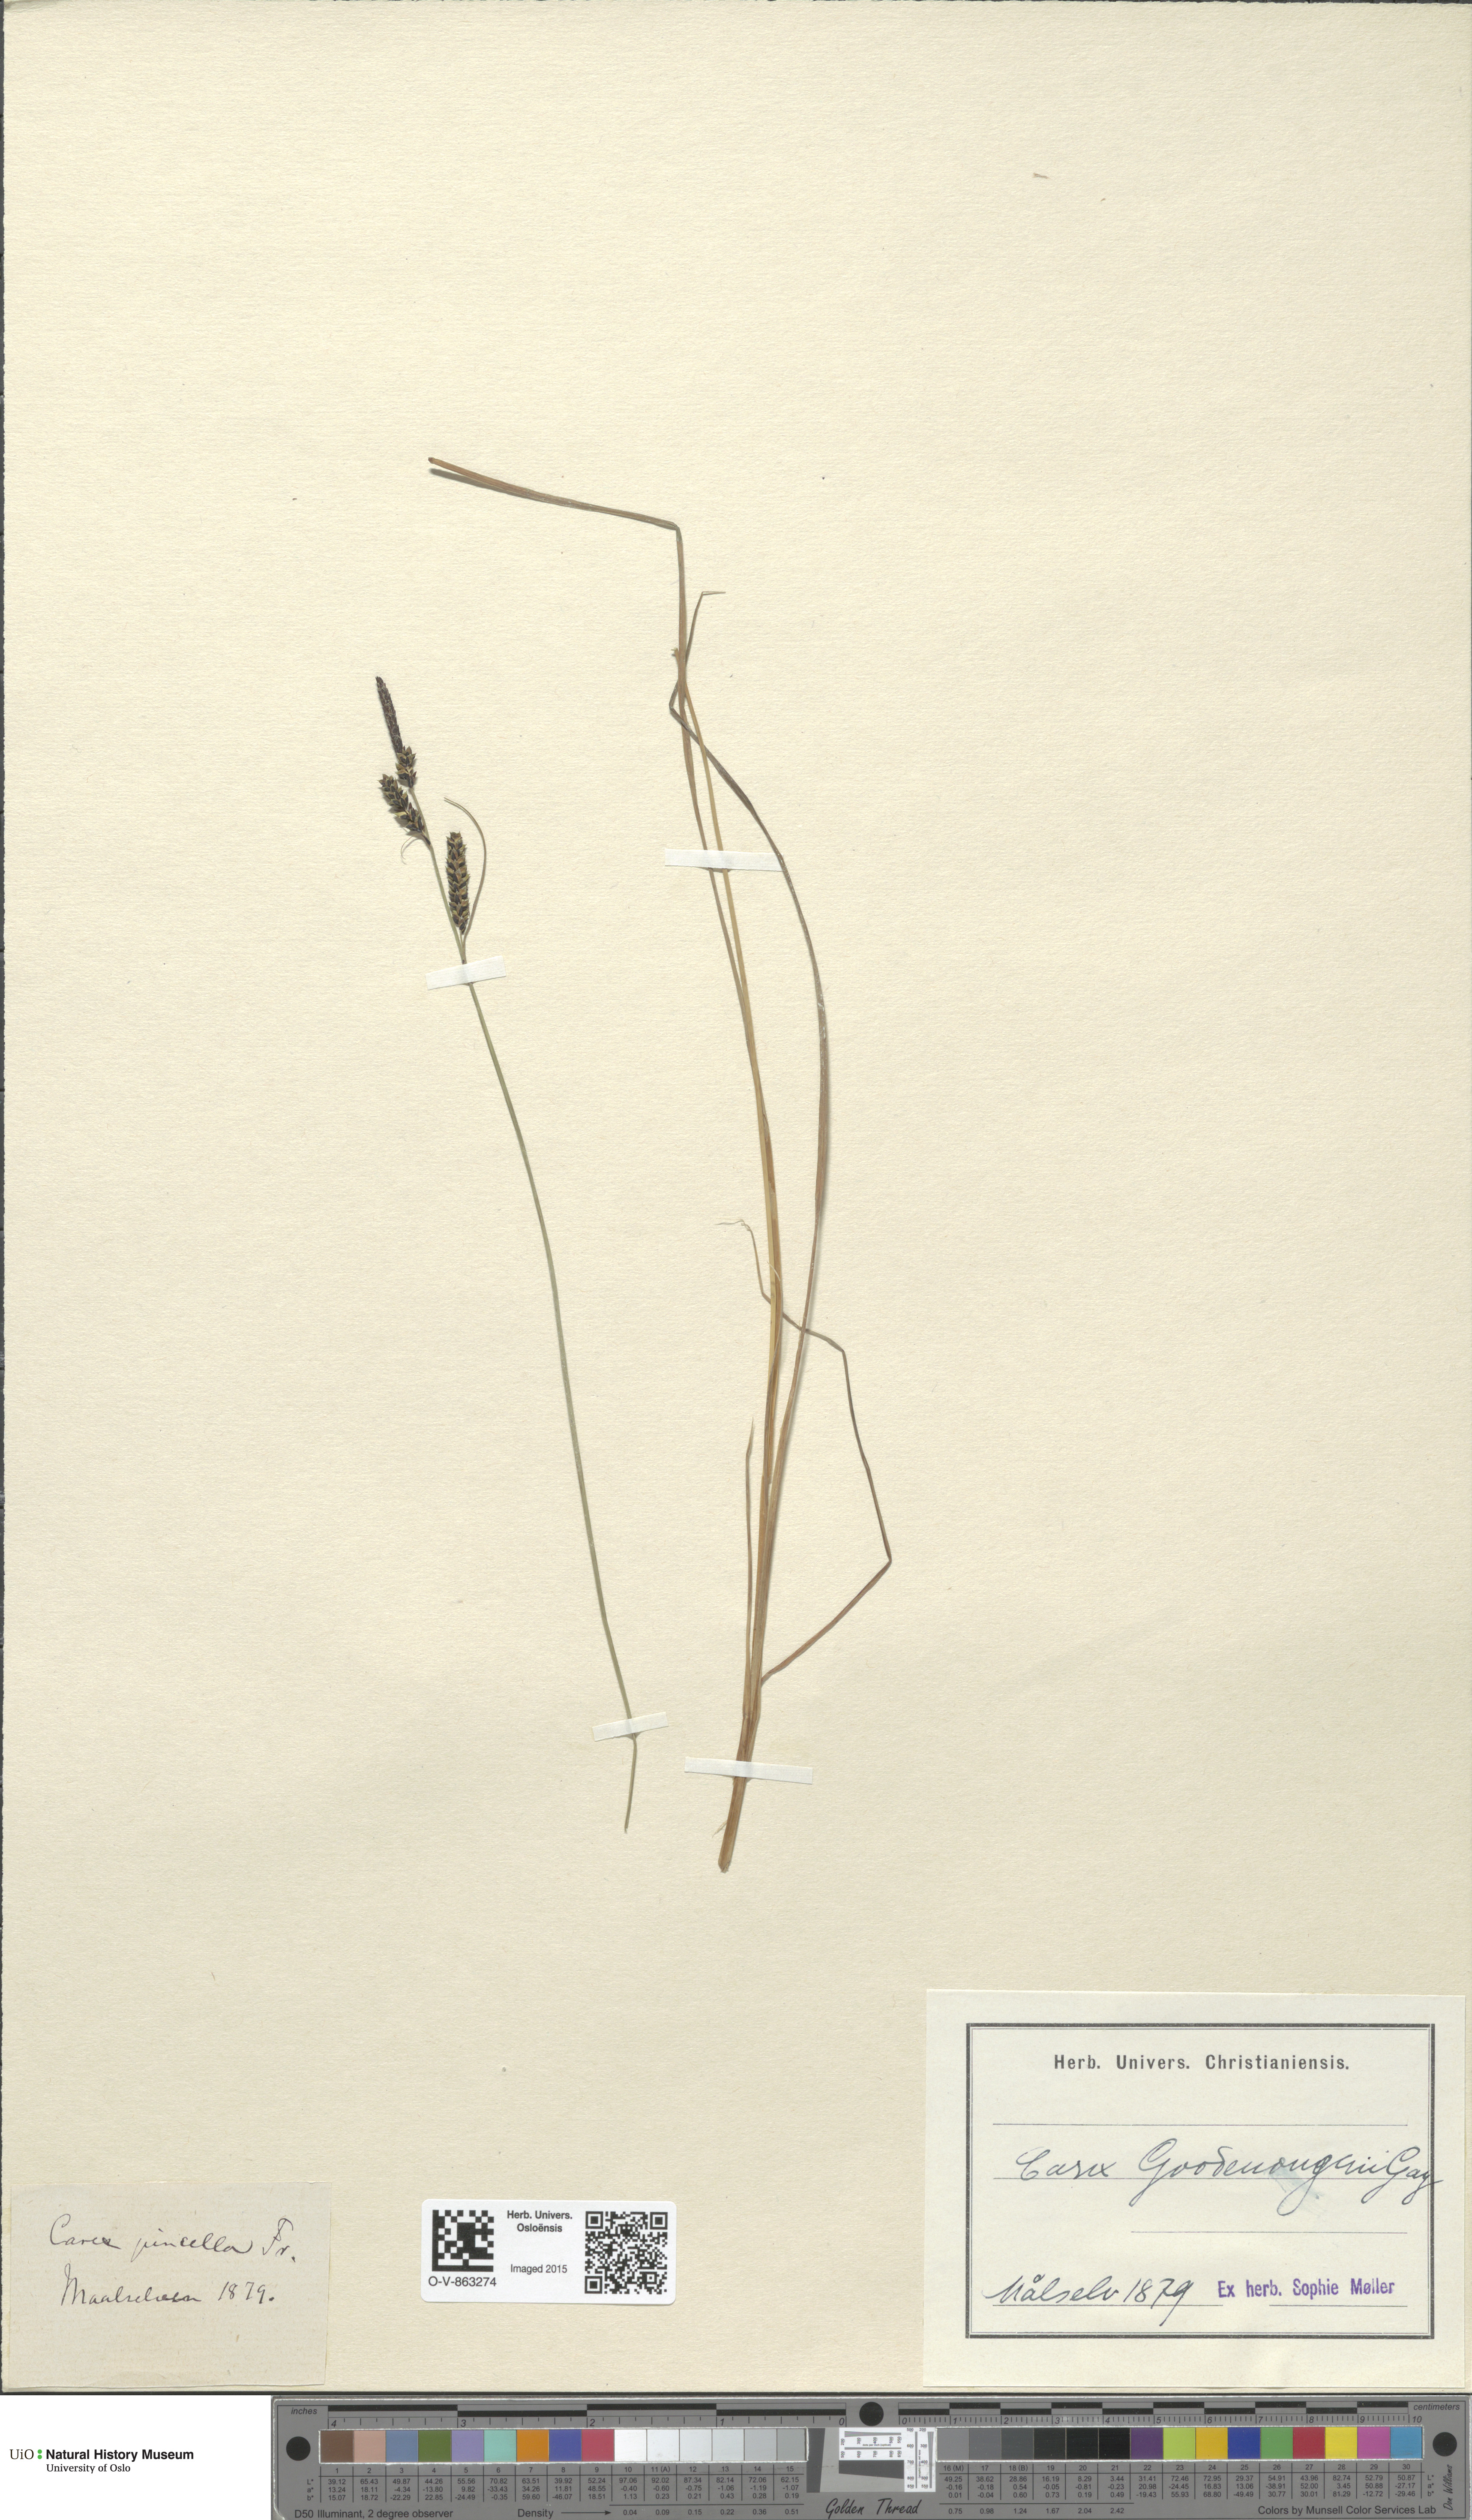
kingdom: Plantae
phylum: Tracheophyta
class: Liliopsida
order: Poales
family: Cyperaceae
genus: Carex
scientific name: Carex nigra
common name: Common sedge
